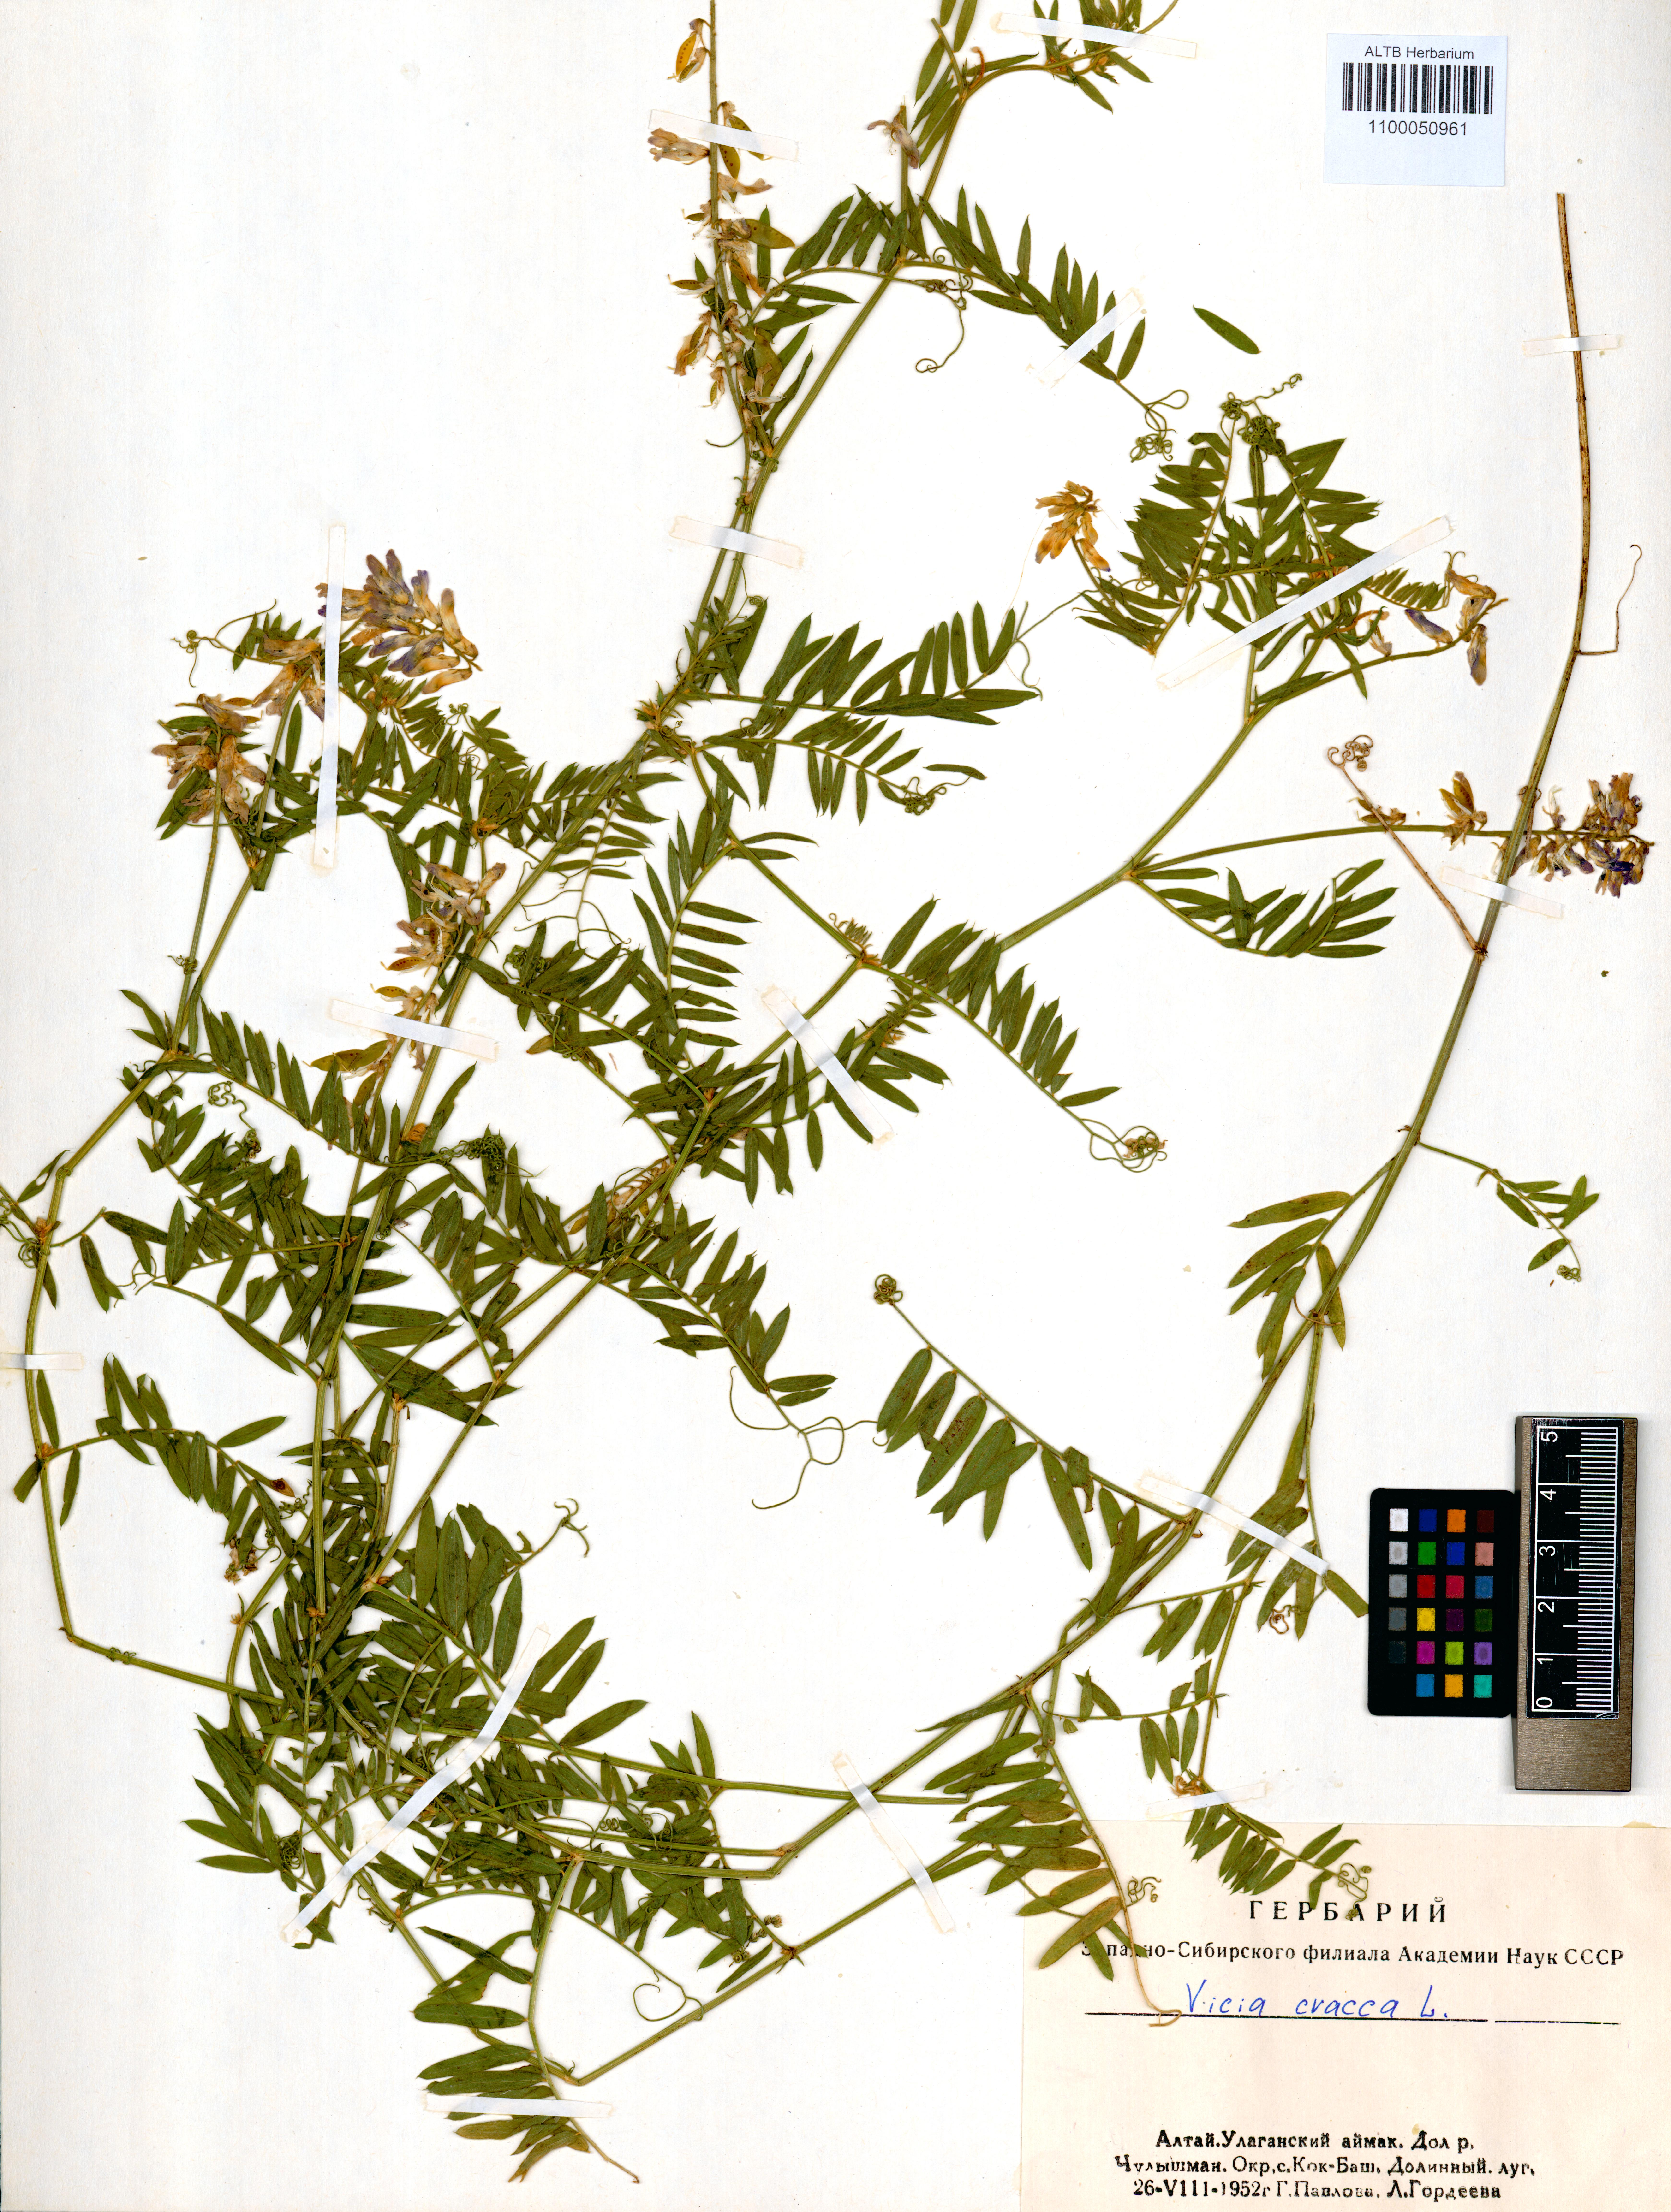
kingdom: Plantae
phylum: Tracheophyta
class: Magnoliopsida
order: Fabales
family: Fabaceae
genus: Vicia
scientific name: Vicia cracca
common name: Bird vetch
